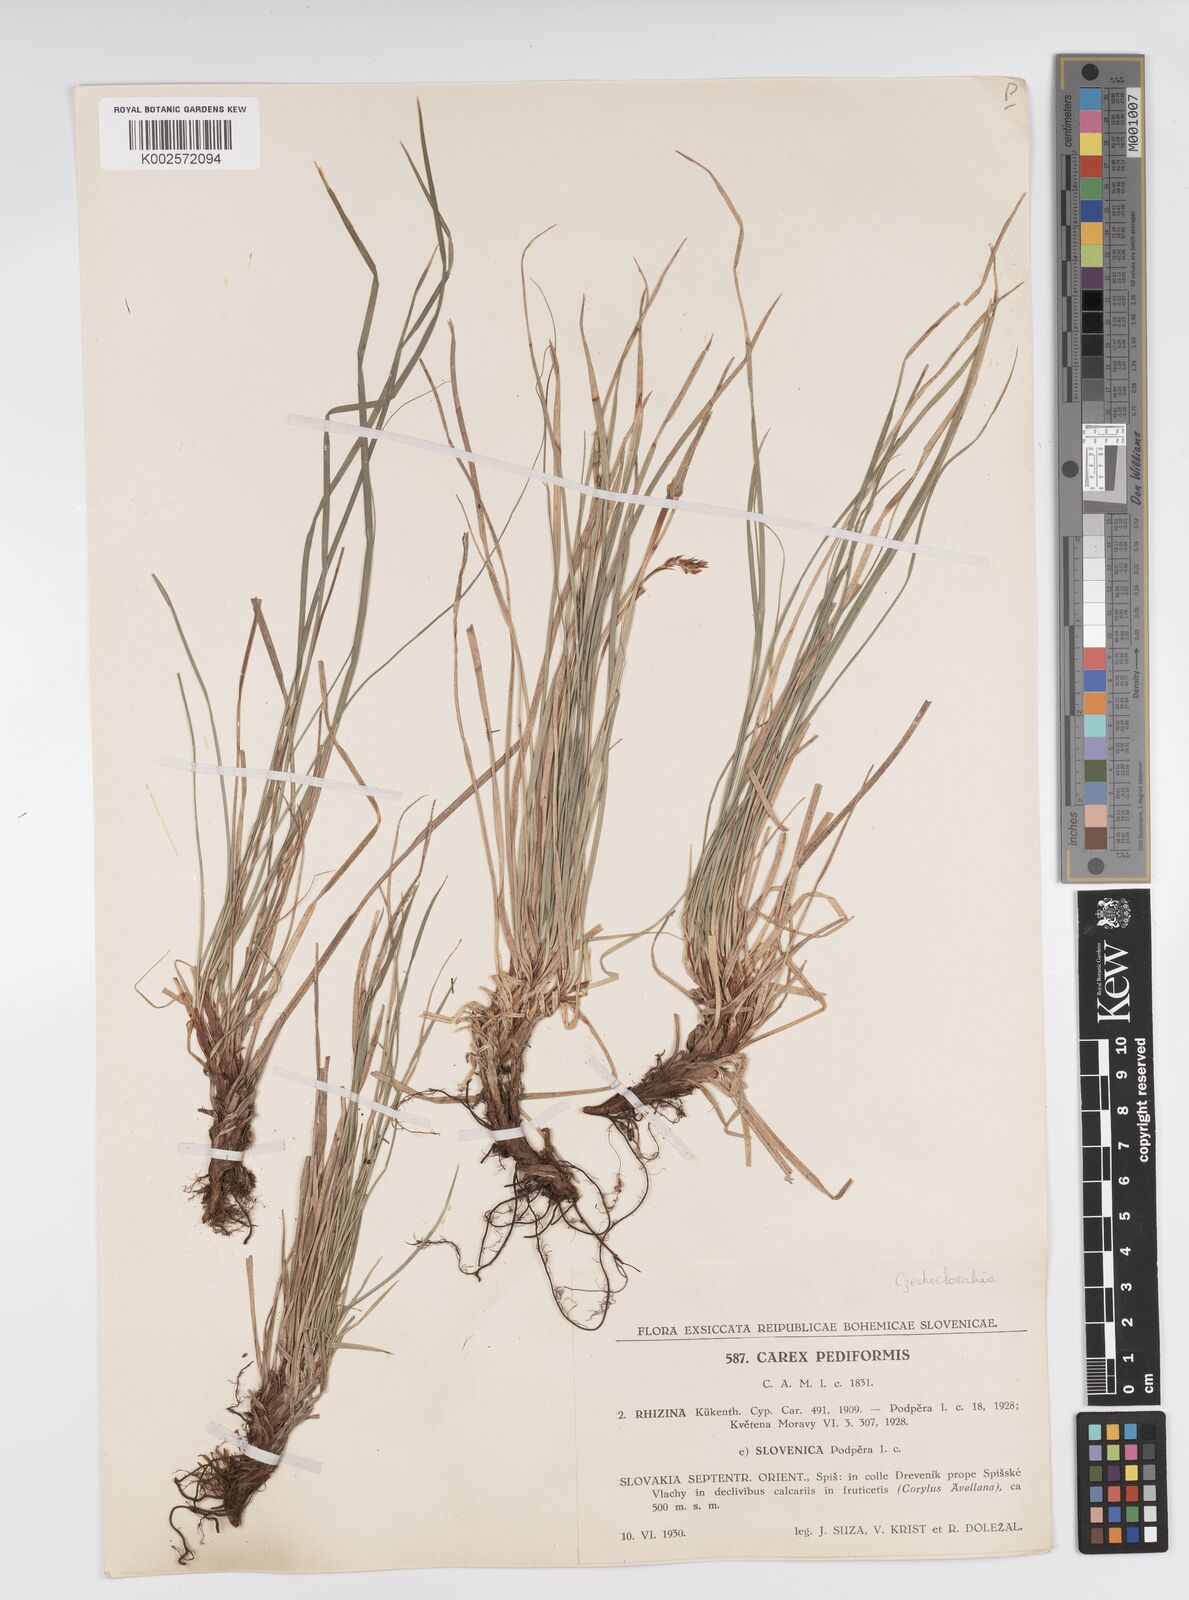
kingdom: Plantae
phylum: Tracheophyta
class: Liliopsida
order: Poales
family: Cyperaceae
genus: Carex
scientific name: Carex pediformis
